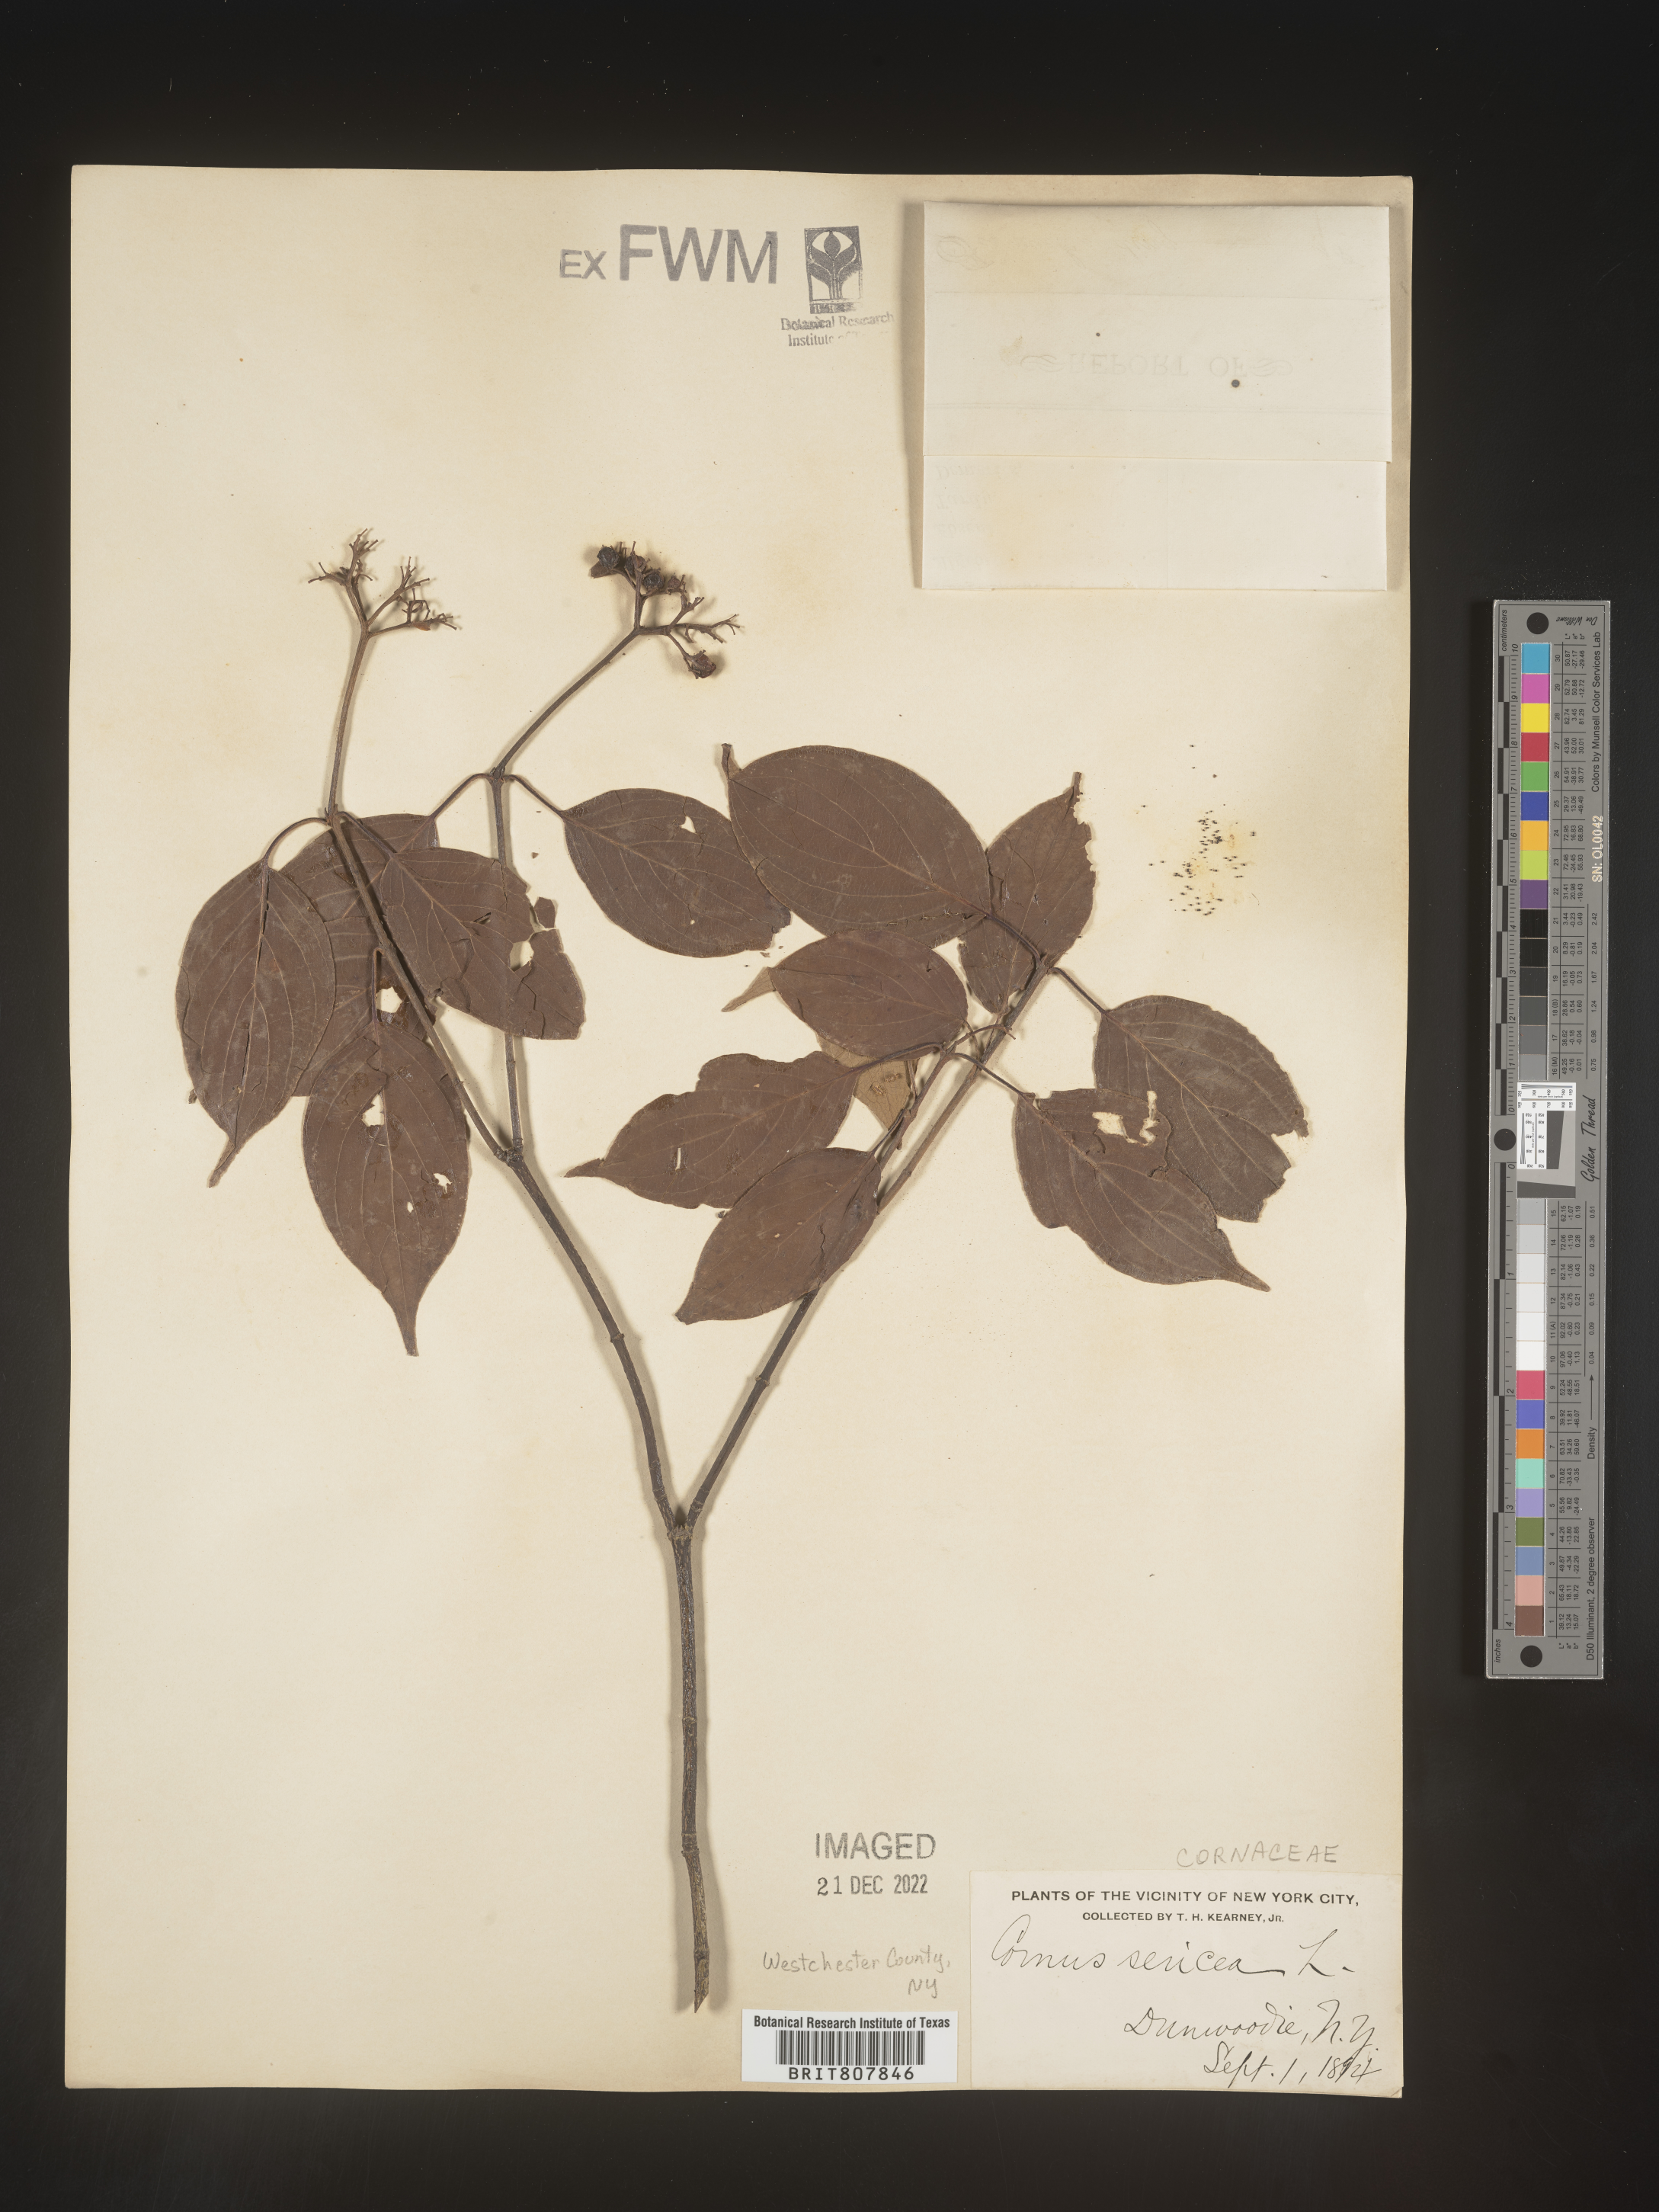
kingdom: Plantae
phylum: Tracheophyta
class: Magnoliopsida
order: Cornales
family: Cornaceae
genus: Cornus
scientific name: Cornus
